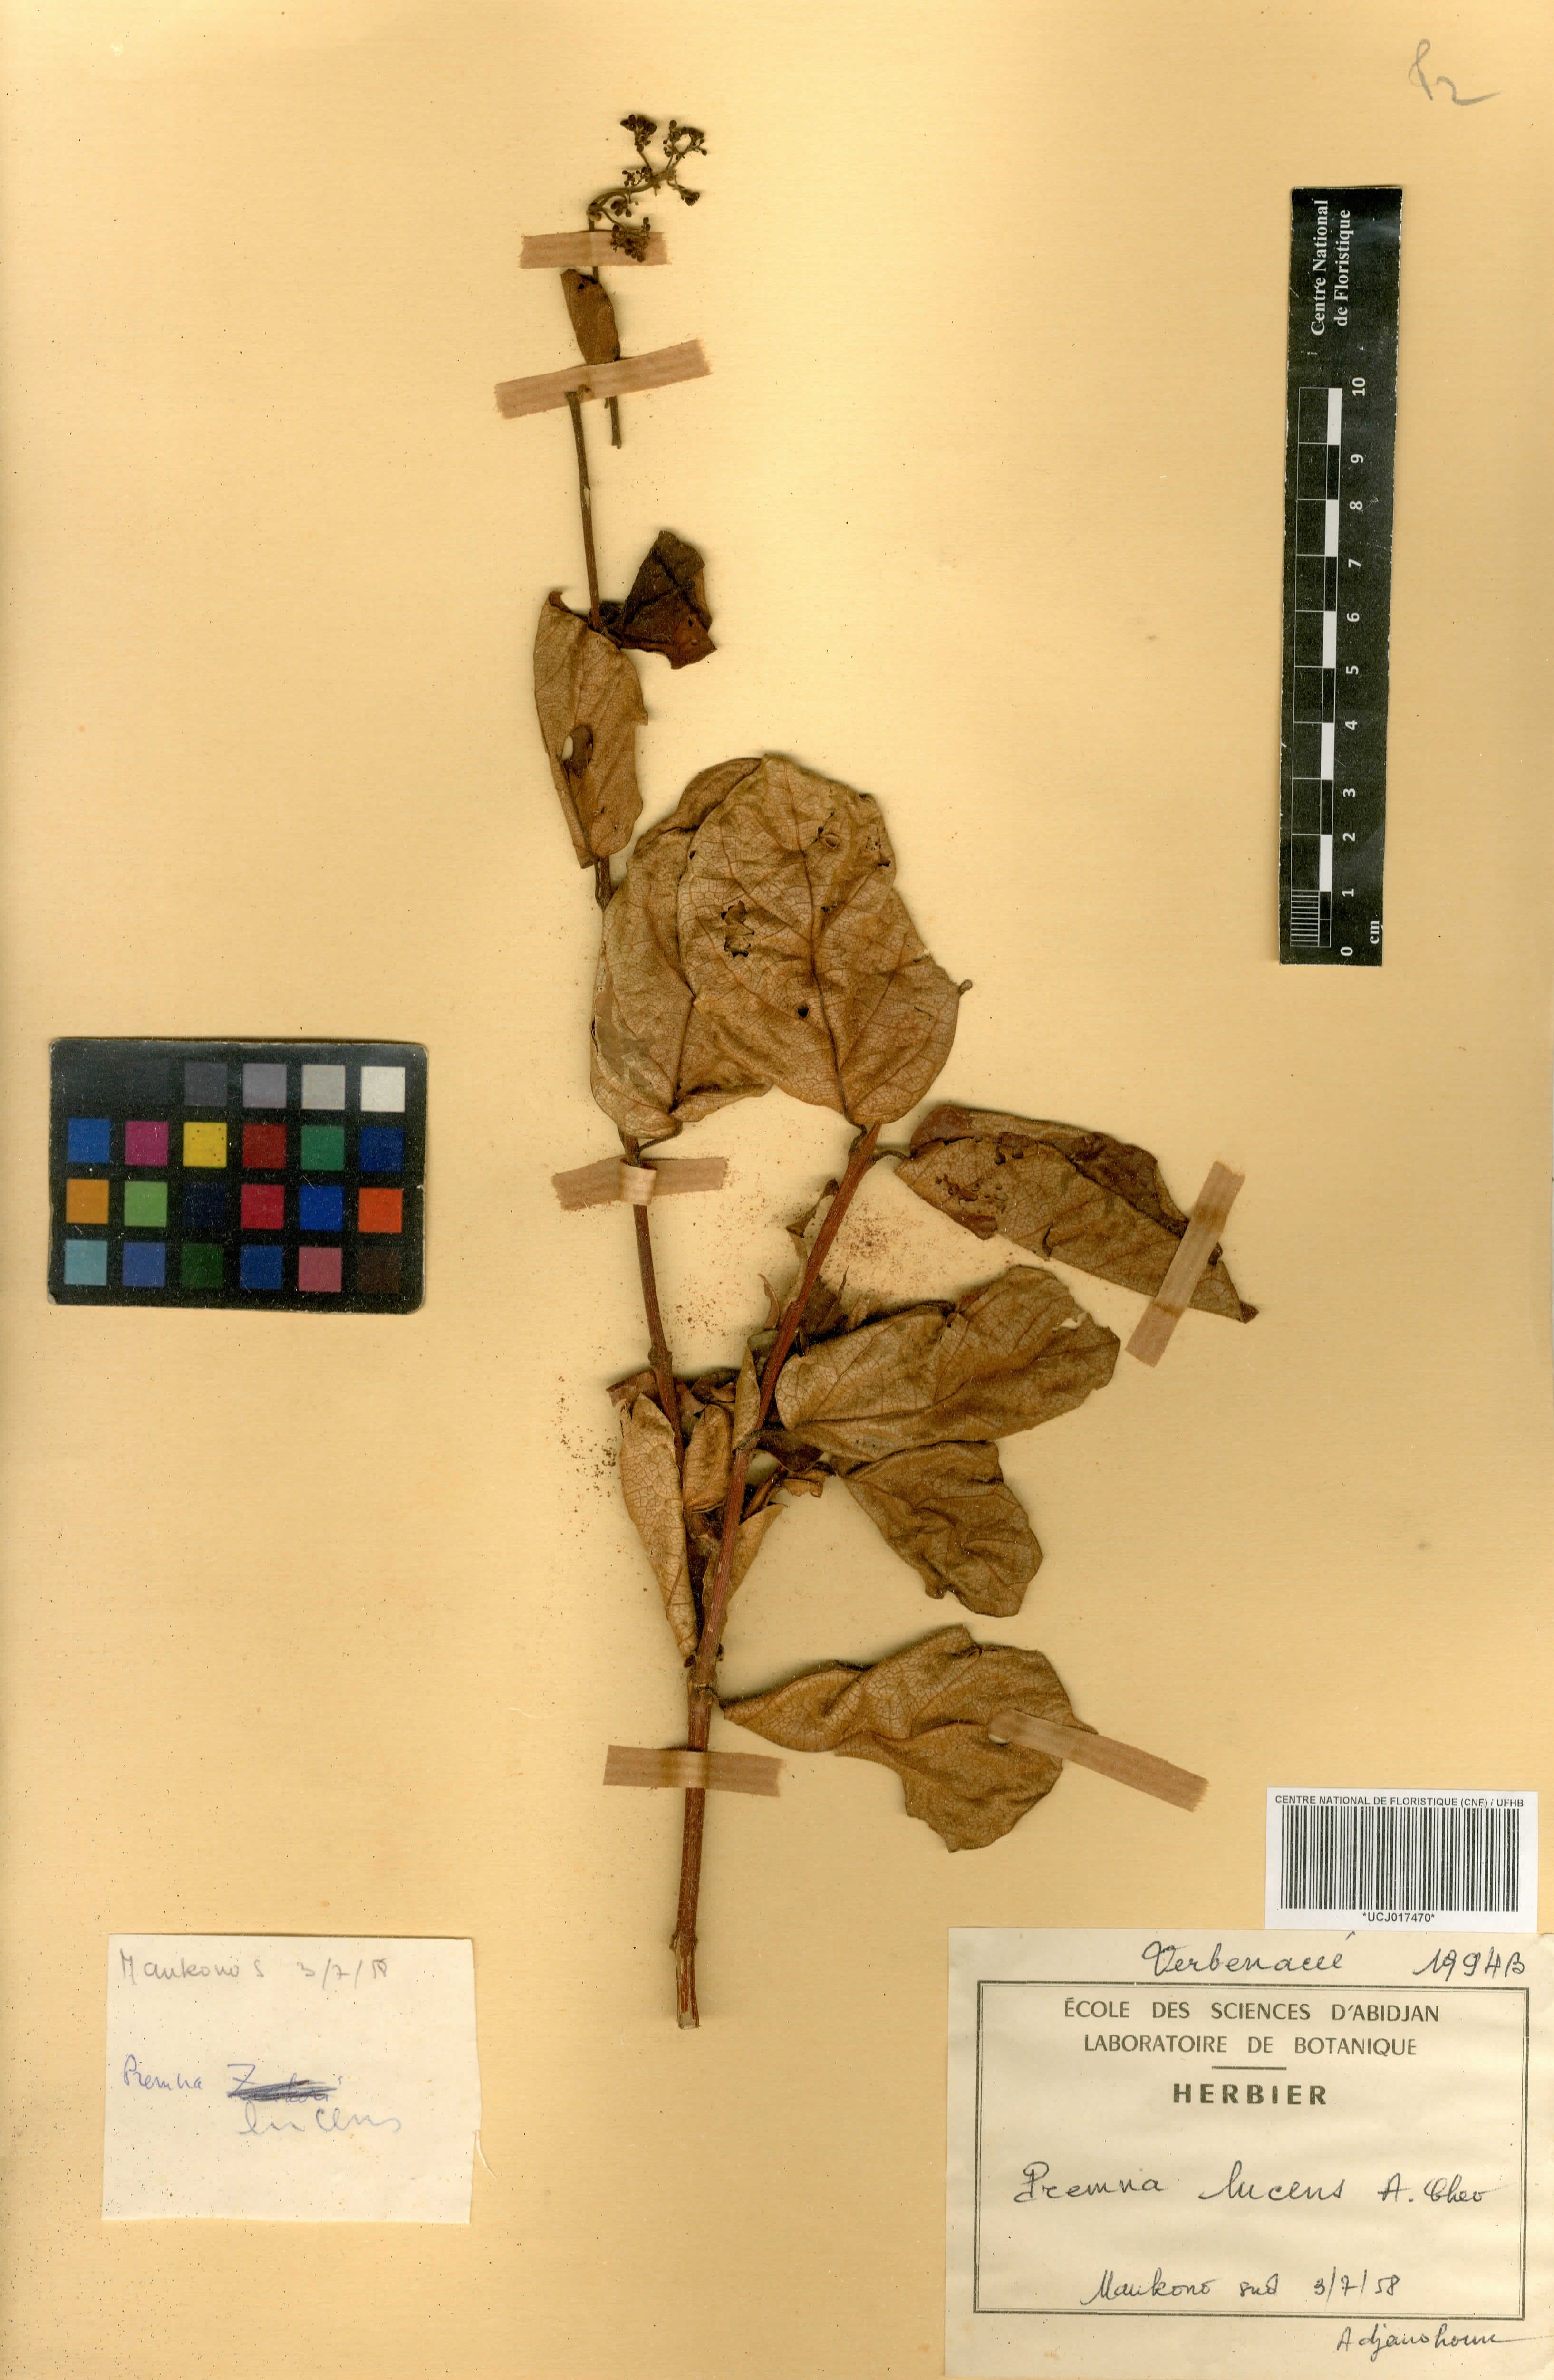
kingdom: Plantae
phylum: Tracheophyta
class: Magnoliopsida
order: Lamiales
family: Lamiaceae
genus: Premna
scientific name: Premna lucens
